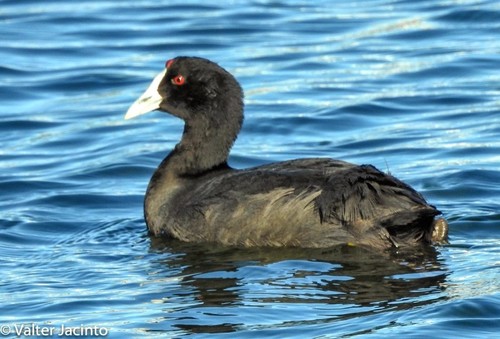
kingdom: Animalia
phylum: Chordata
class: Aves
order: Gruiformes
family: Rallidae
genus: Fulica
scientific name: Fulica cristata
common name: Red-knobbed coot
